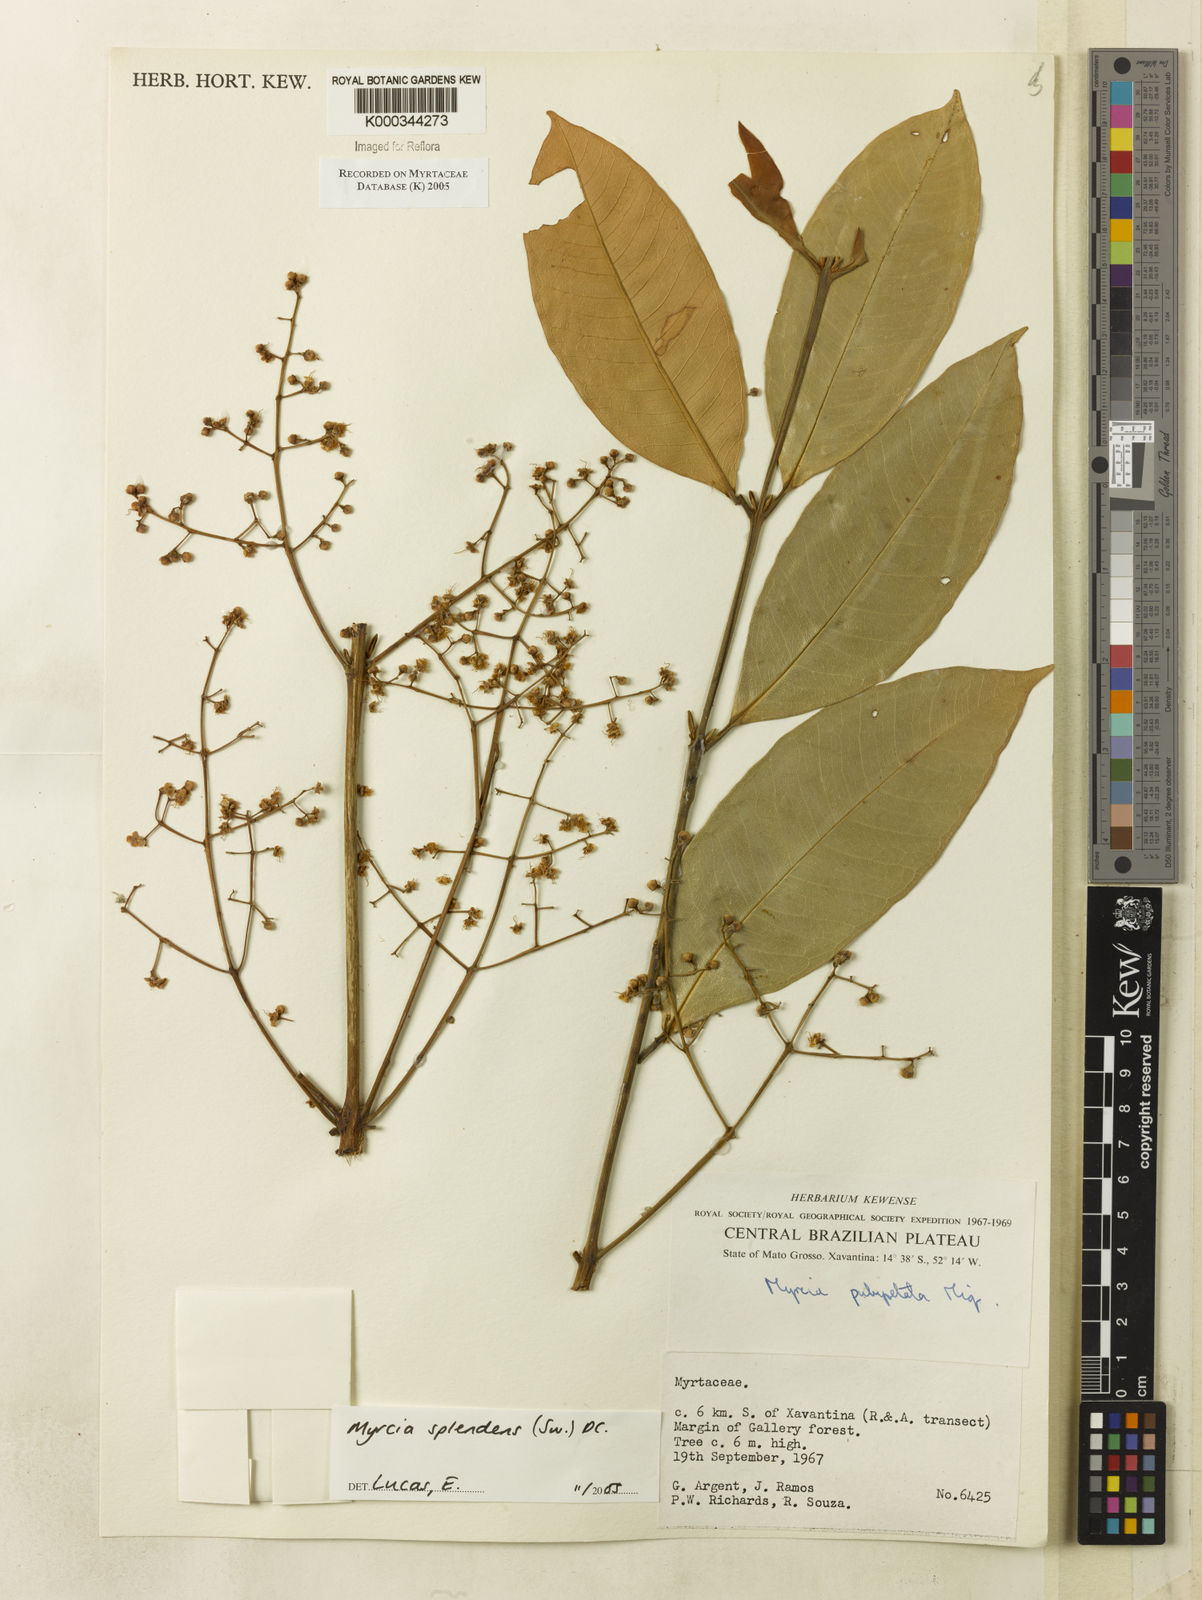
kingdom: Plantae
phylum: Tracheophyta
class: Magnoliopsida
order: Myrtales
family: Myrtaceae
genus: Myrcia
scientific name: Myrcia splendens
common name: Surinam cherry
